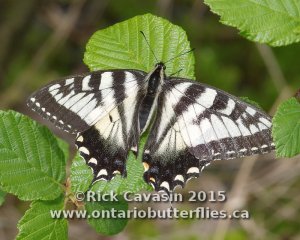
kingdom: Animalia
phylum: Arthropoda
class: Insecta
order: Lepidoptera
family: Papilionidae
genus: Pterourus
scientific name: Pterourus canadensis
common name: Canadian Tiger Swallowtail
